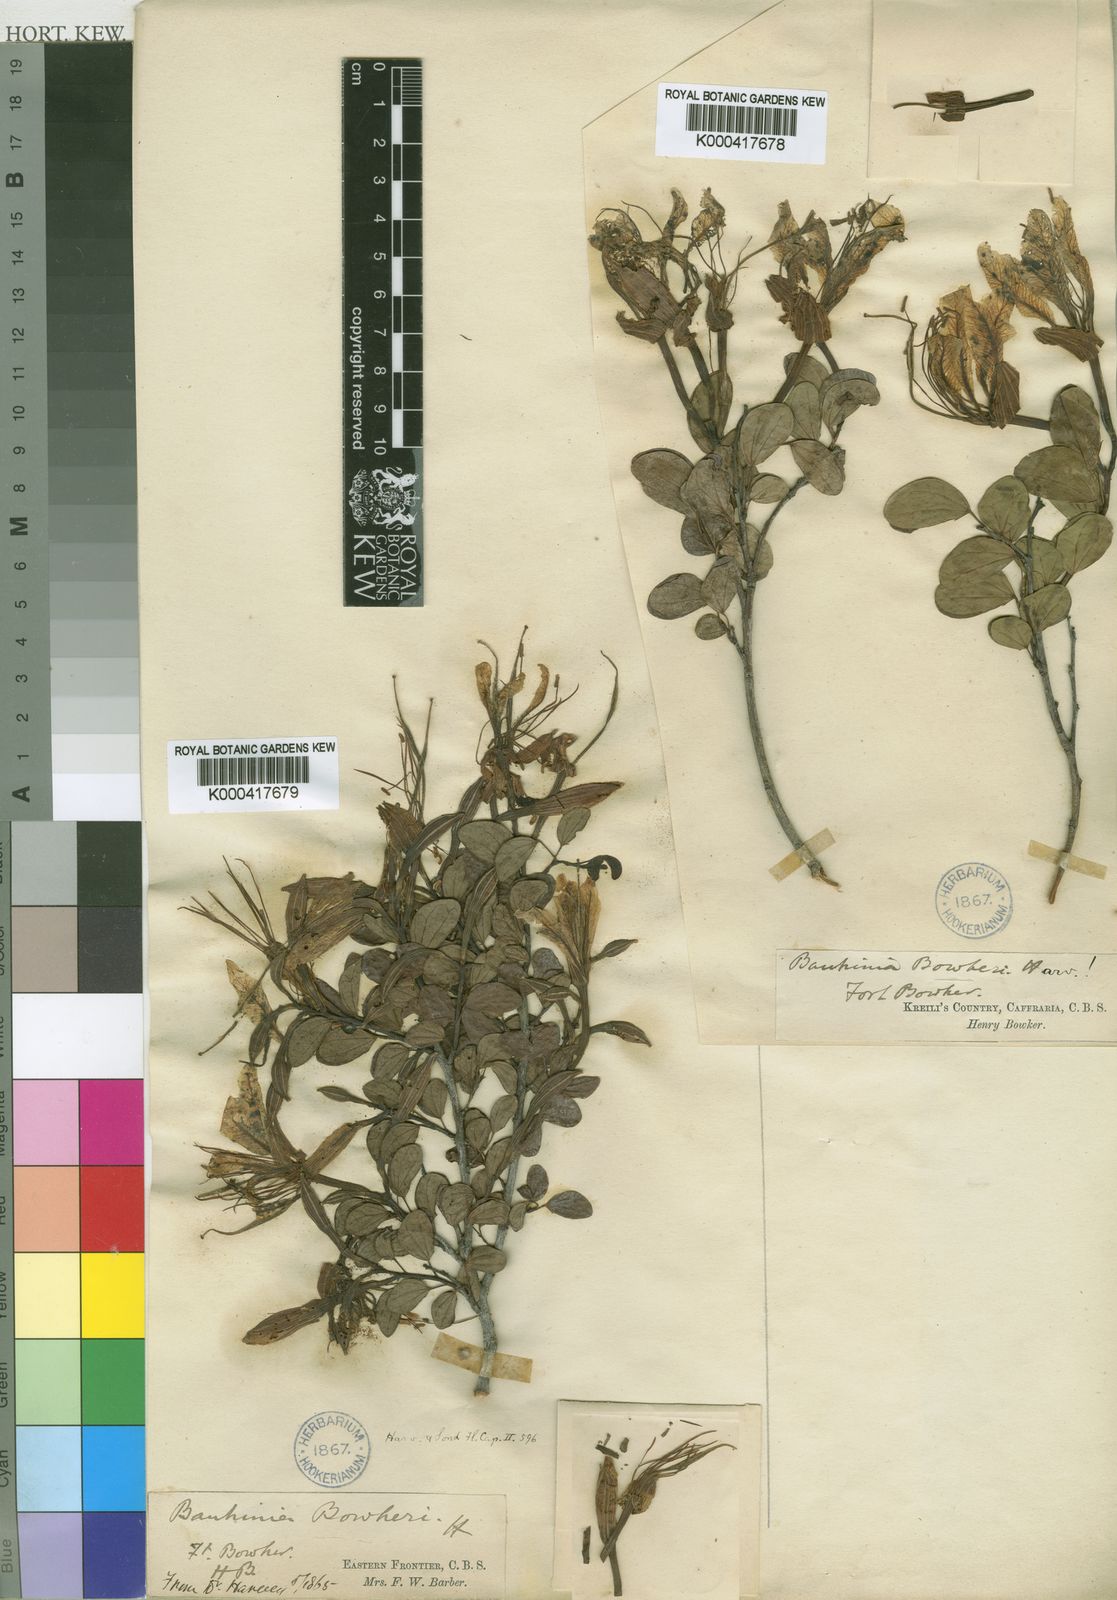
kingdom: Plantae
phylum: Tracheophyta
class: Magnoliopsida
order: Fabales
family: Fabaceae
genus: Bauhinia
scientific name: Bauhinia bowkeri
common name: Kei bauhinia
